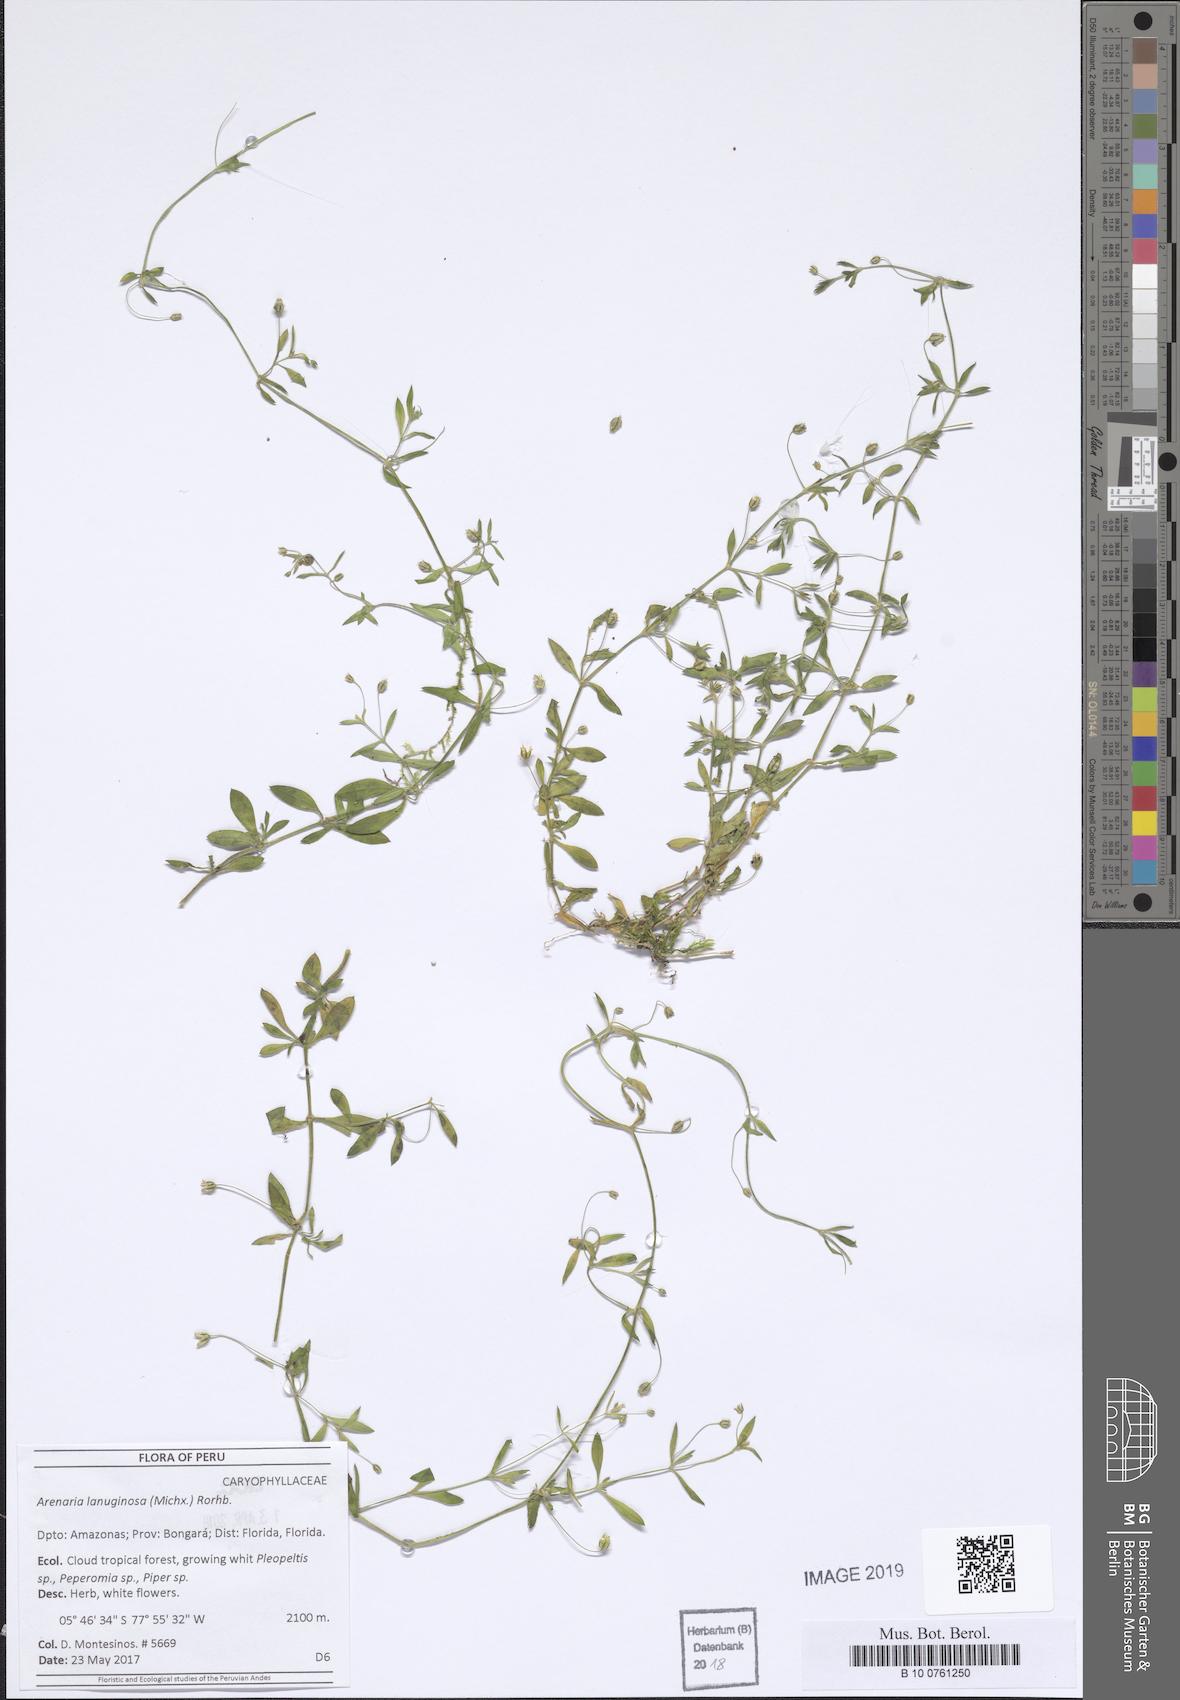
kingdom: Plantae
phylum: Tracheophyta
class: Magnoliopsida
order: Caryophyllales
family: Caryophyllaceae
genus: Arenaria
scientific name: Arenaria lanuginosa
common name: Spread sandwort
